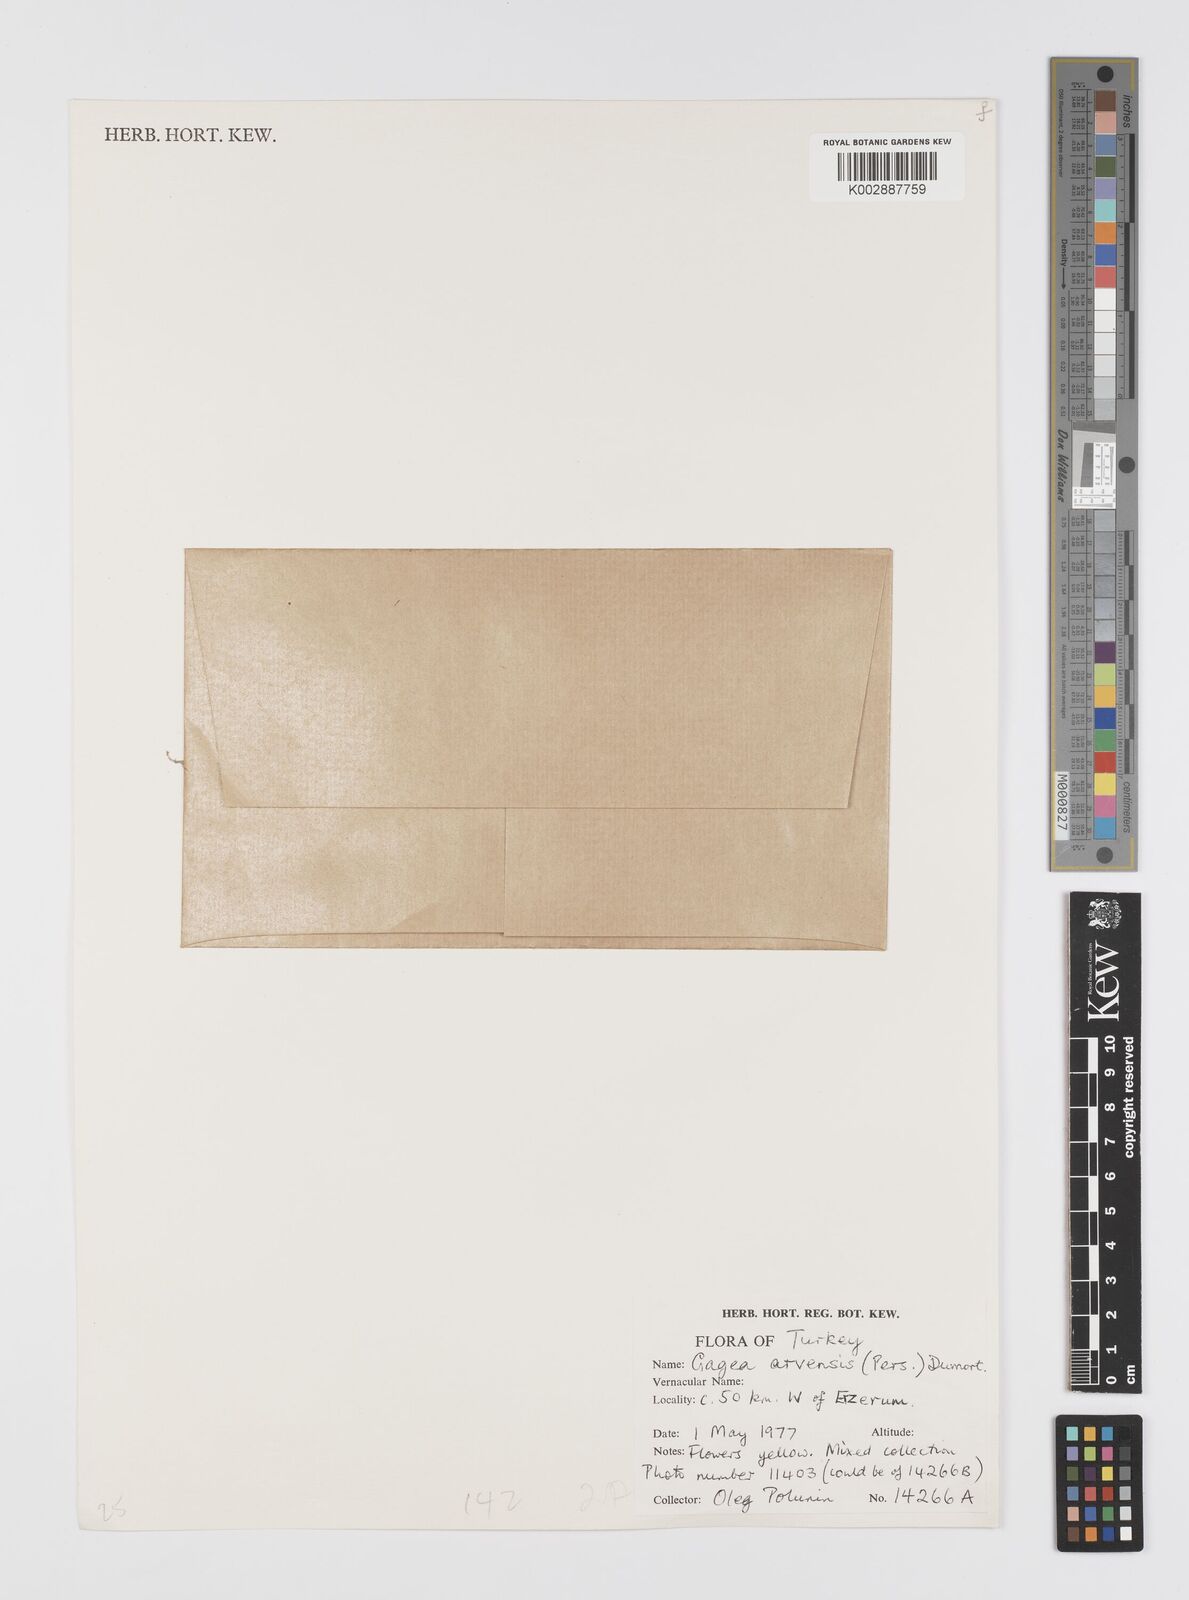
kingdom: Plantae
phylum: Tracheophyta
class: Liliopsida
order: Liliales
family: Liliaceae
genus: Gagea
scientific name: Gagea villosa
